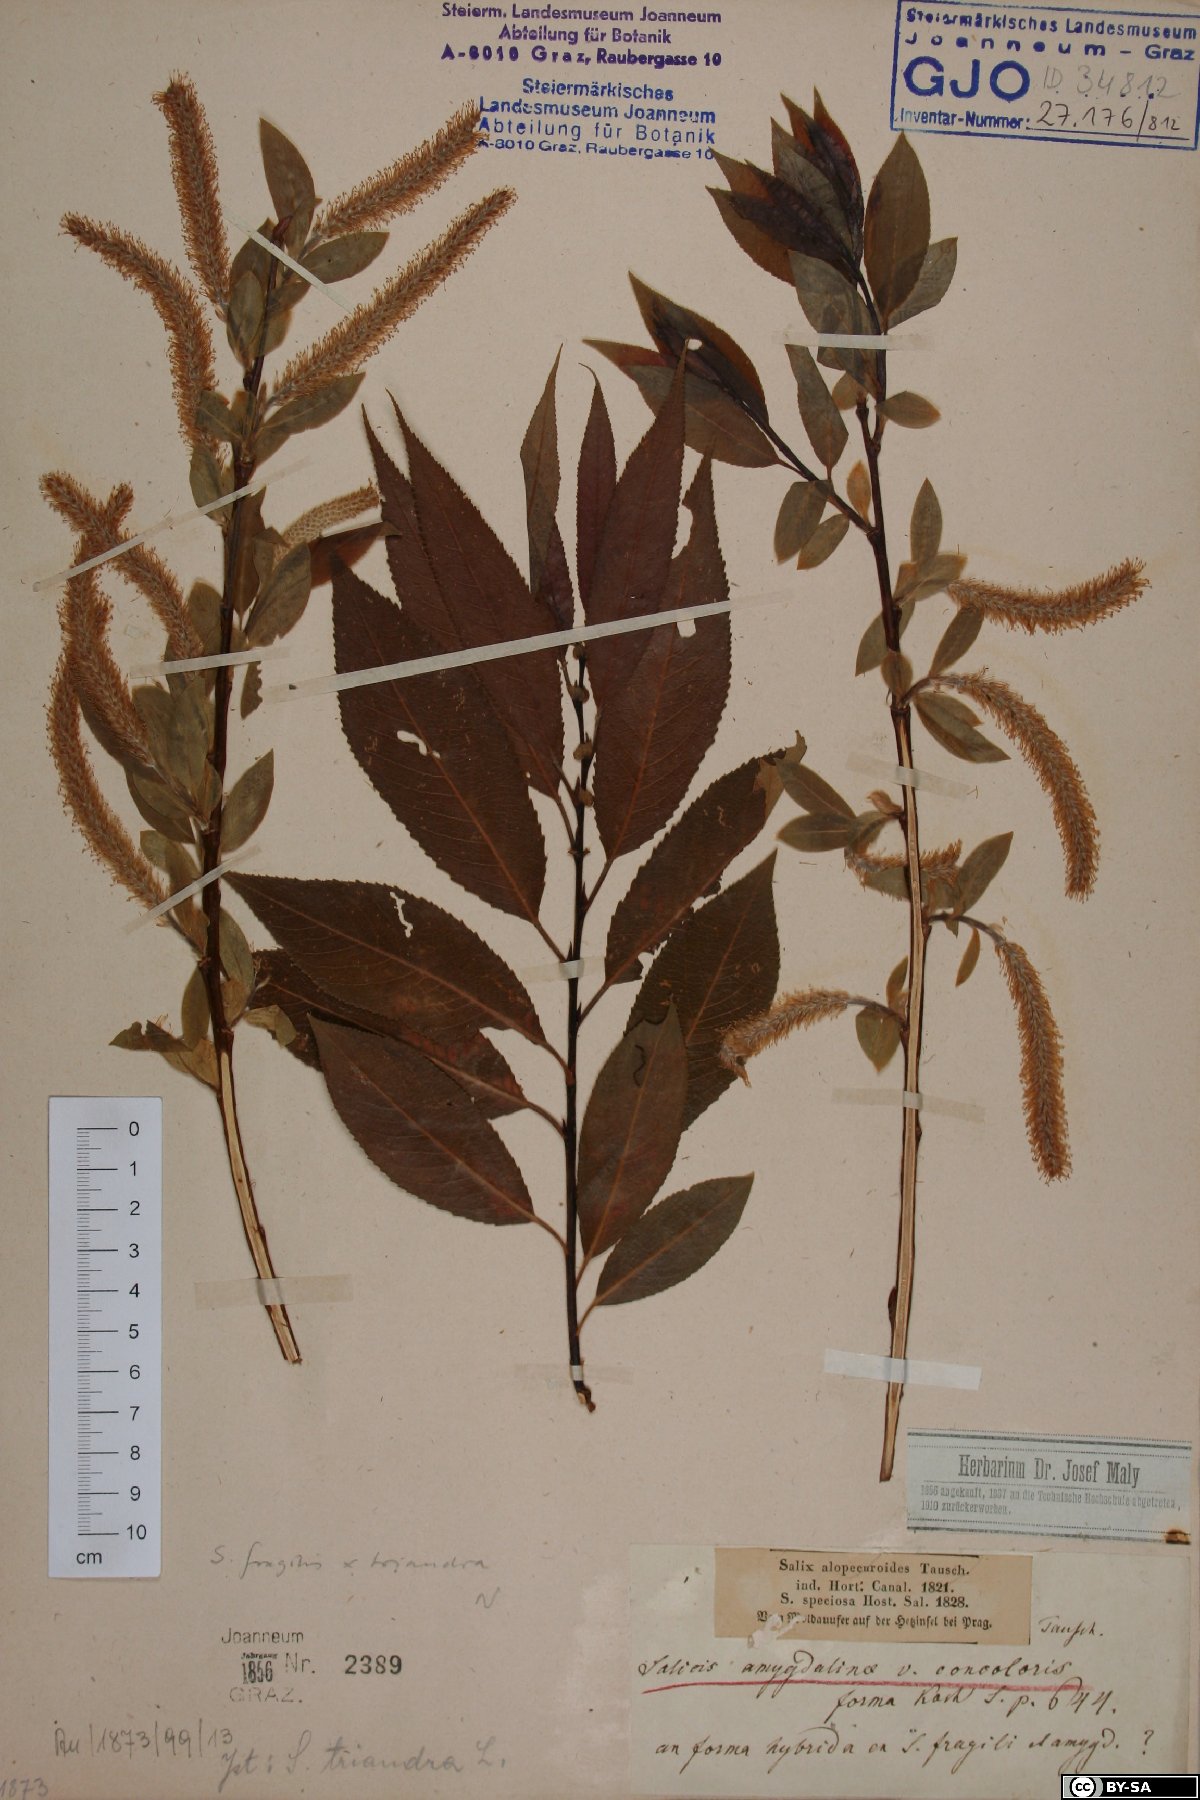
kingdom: Plantae
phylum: Tracheophyta
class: Magnoliopsida
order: Malpighiales
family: Salicaceae
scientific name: Salicaceae
